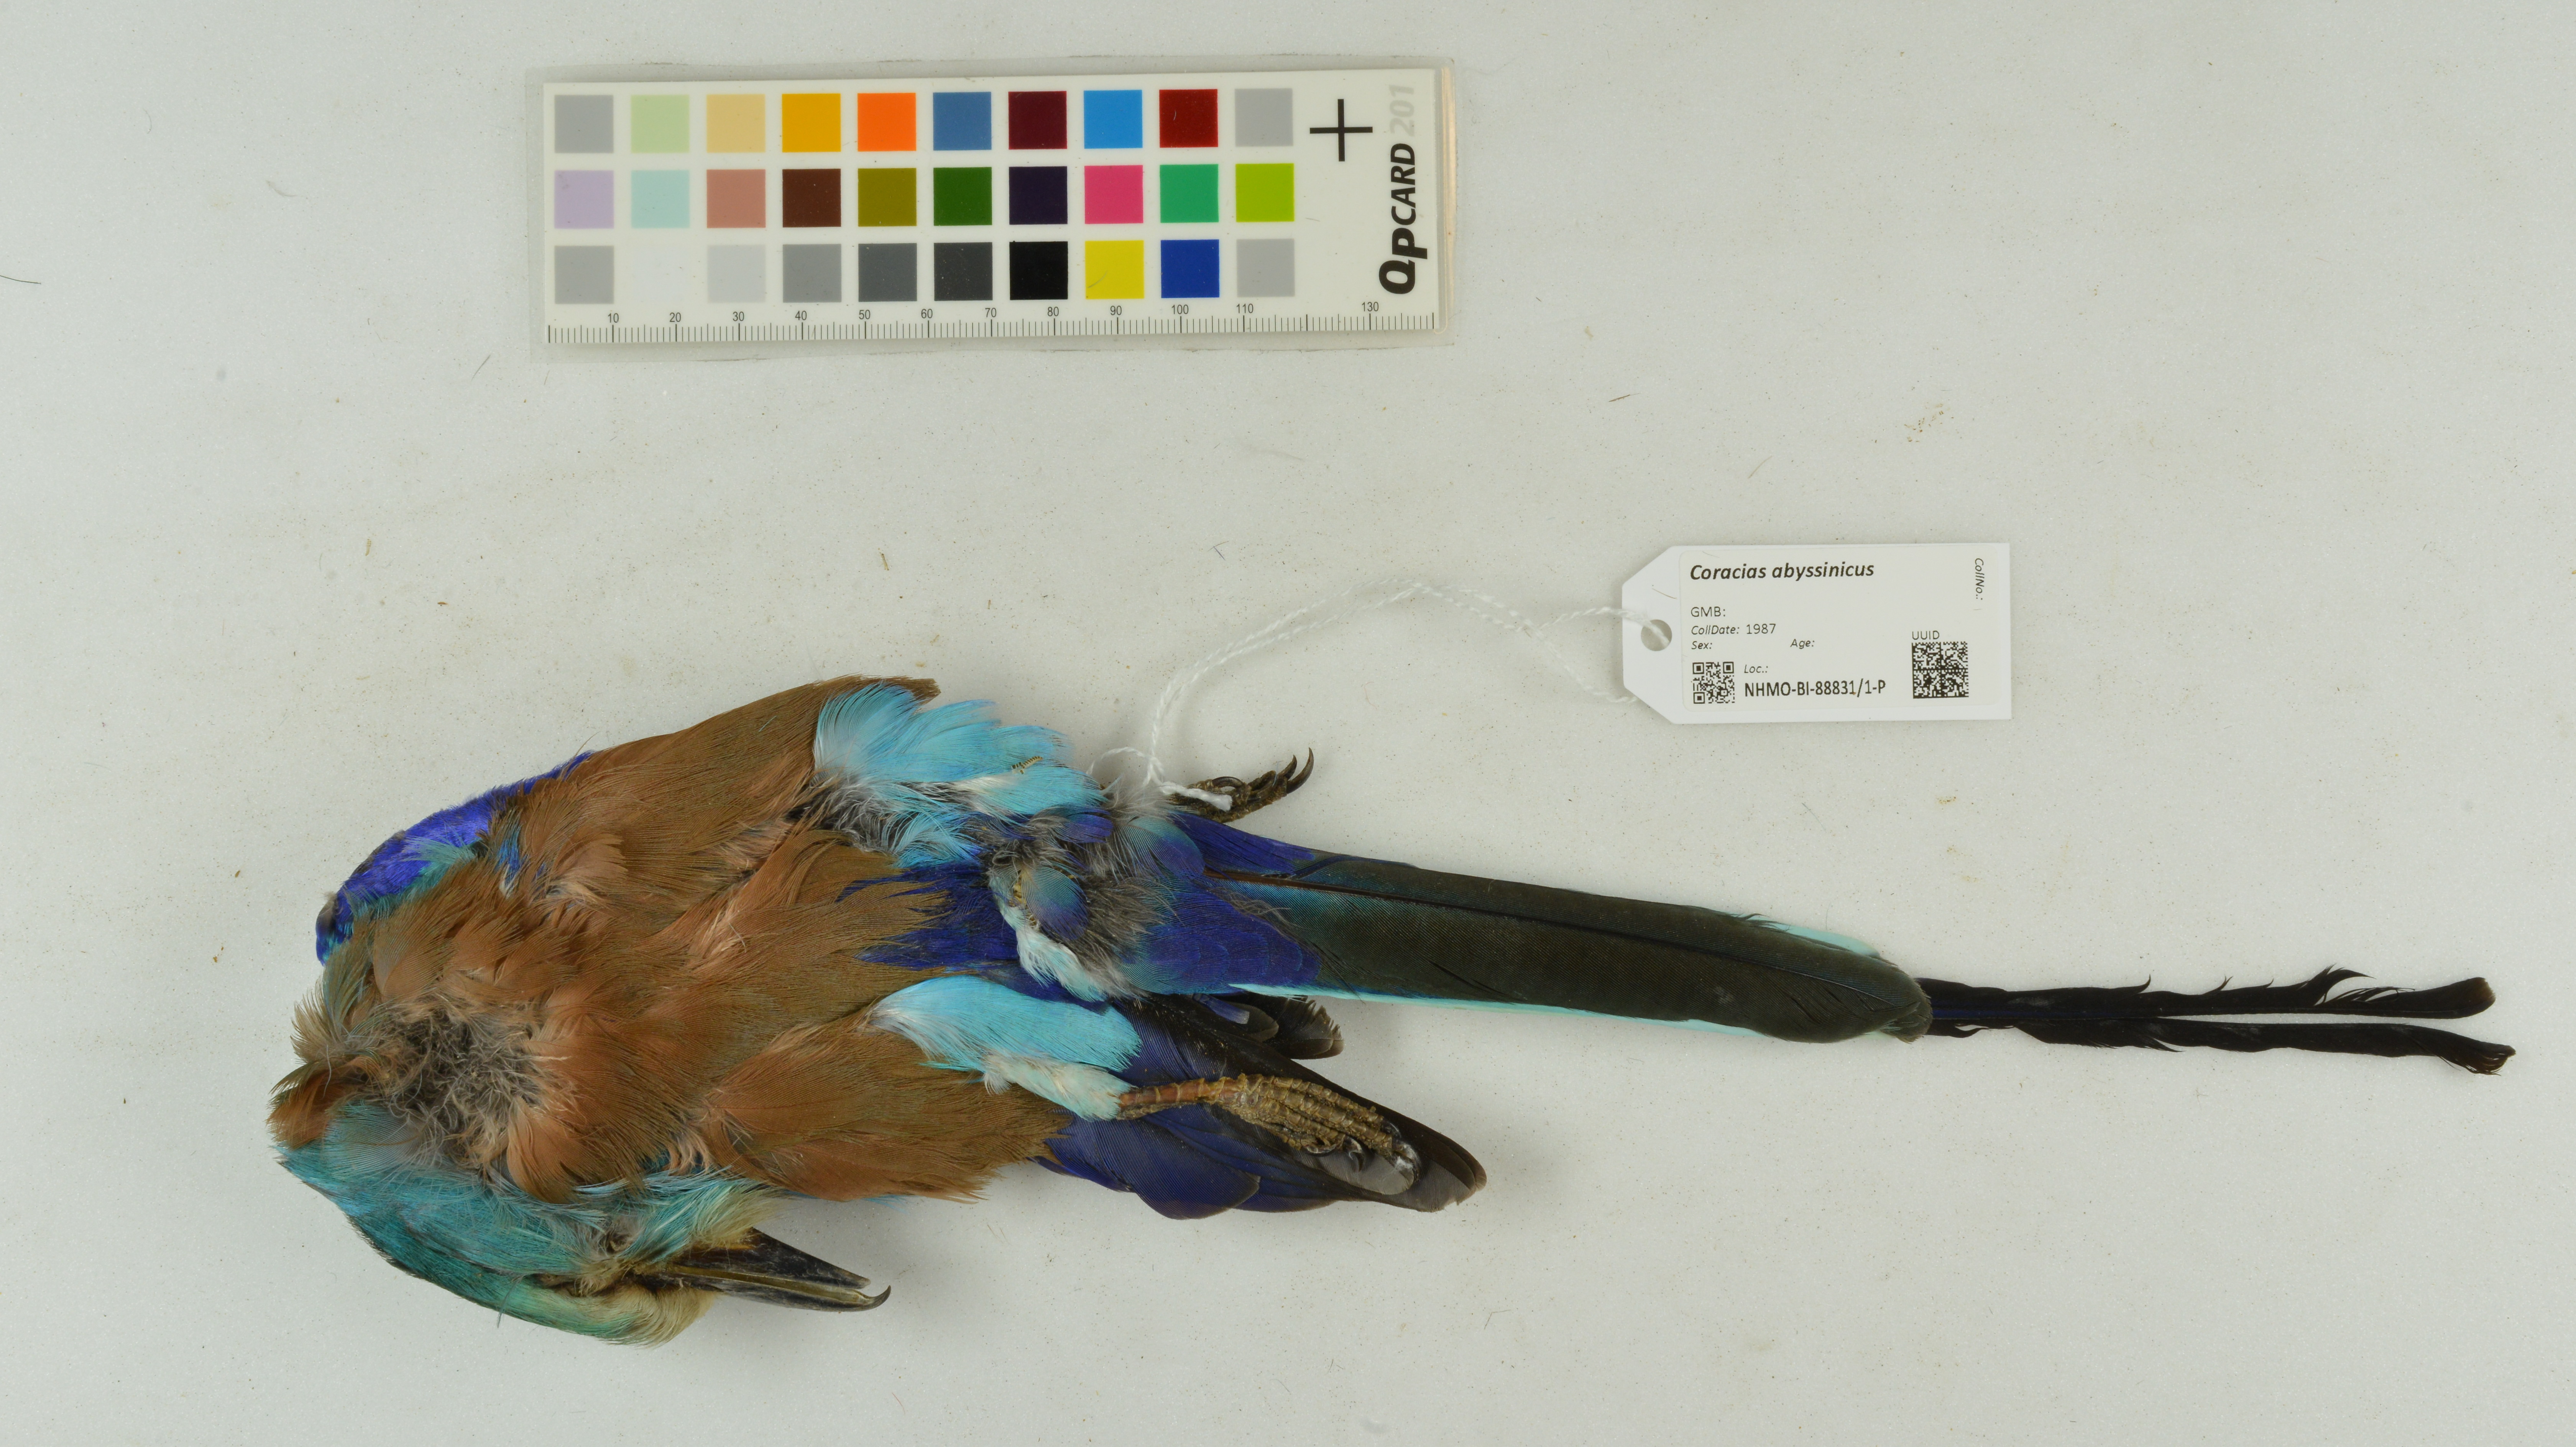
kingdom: Animalia
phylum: Chordata
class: Aves
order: Coraciiformes
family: Coraciidae
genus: Coracias
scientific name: Coracias abyssinicus
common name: Abyssinian roller
